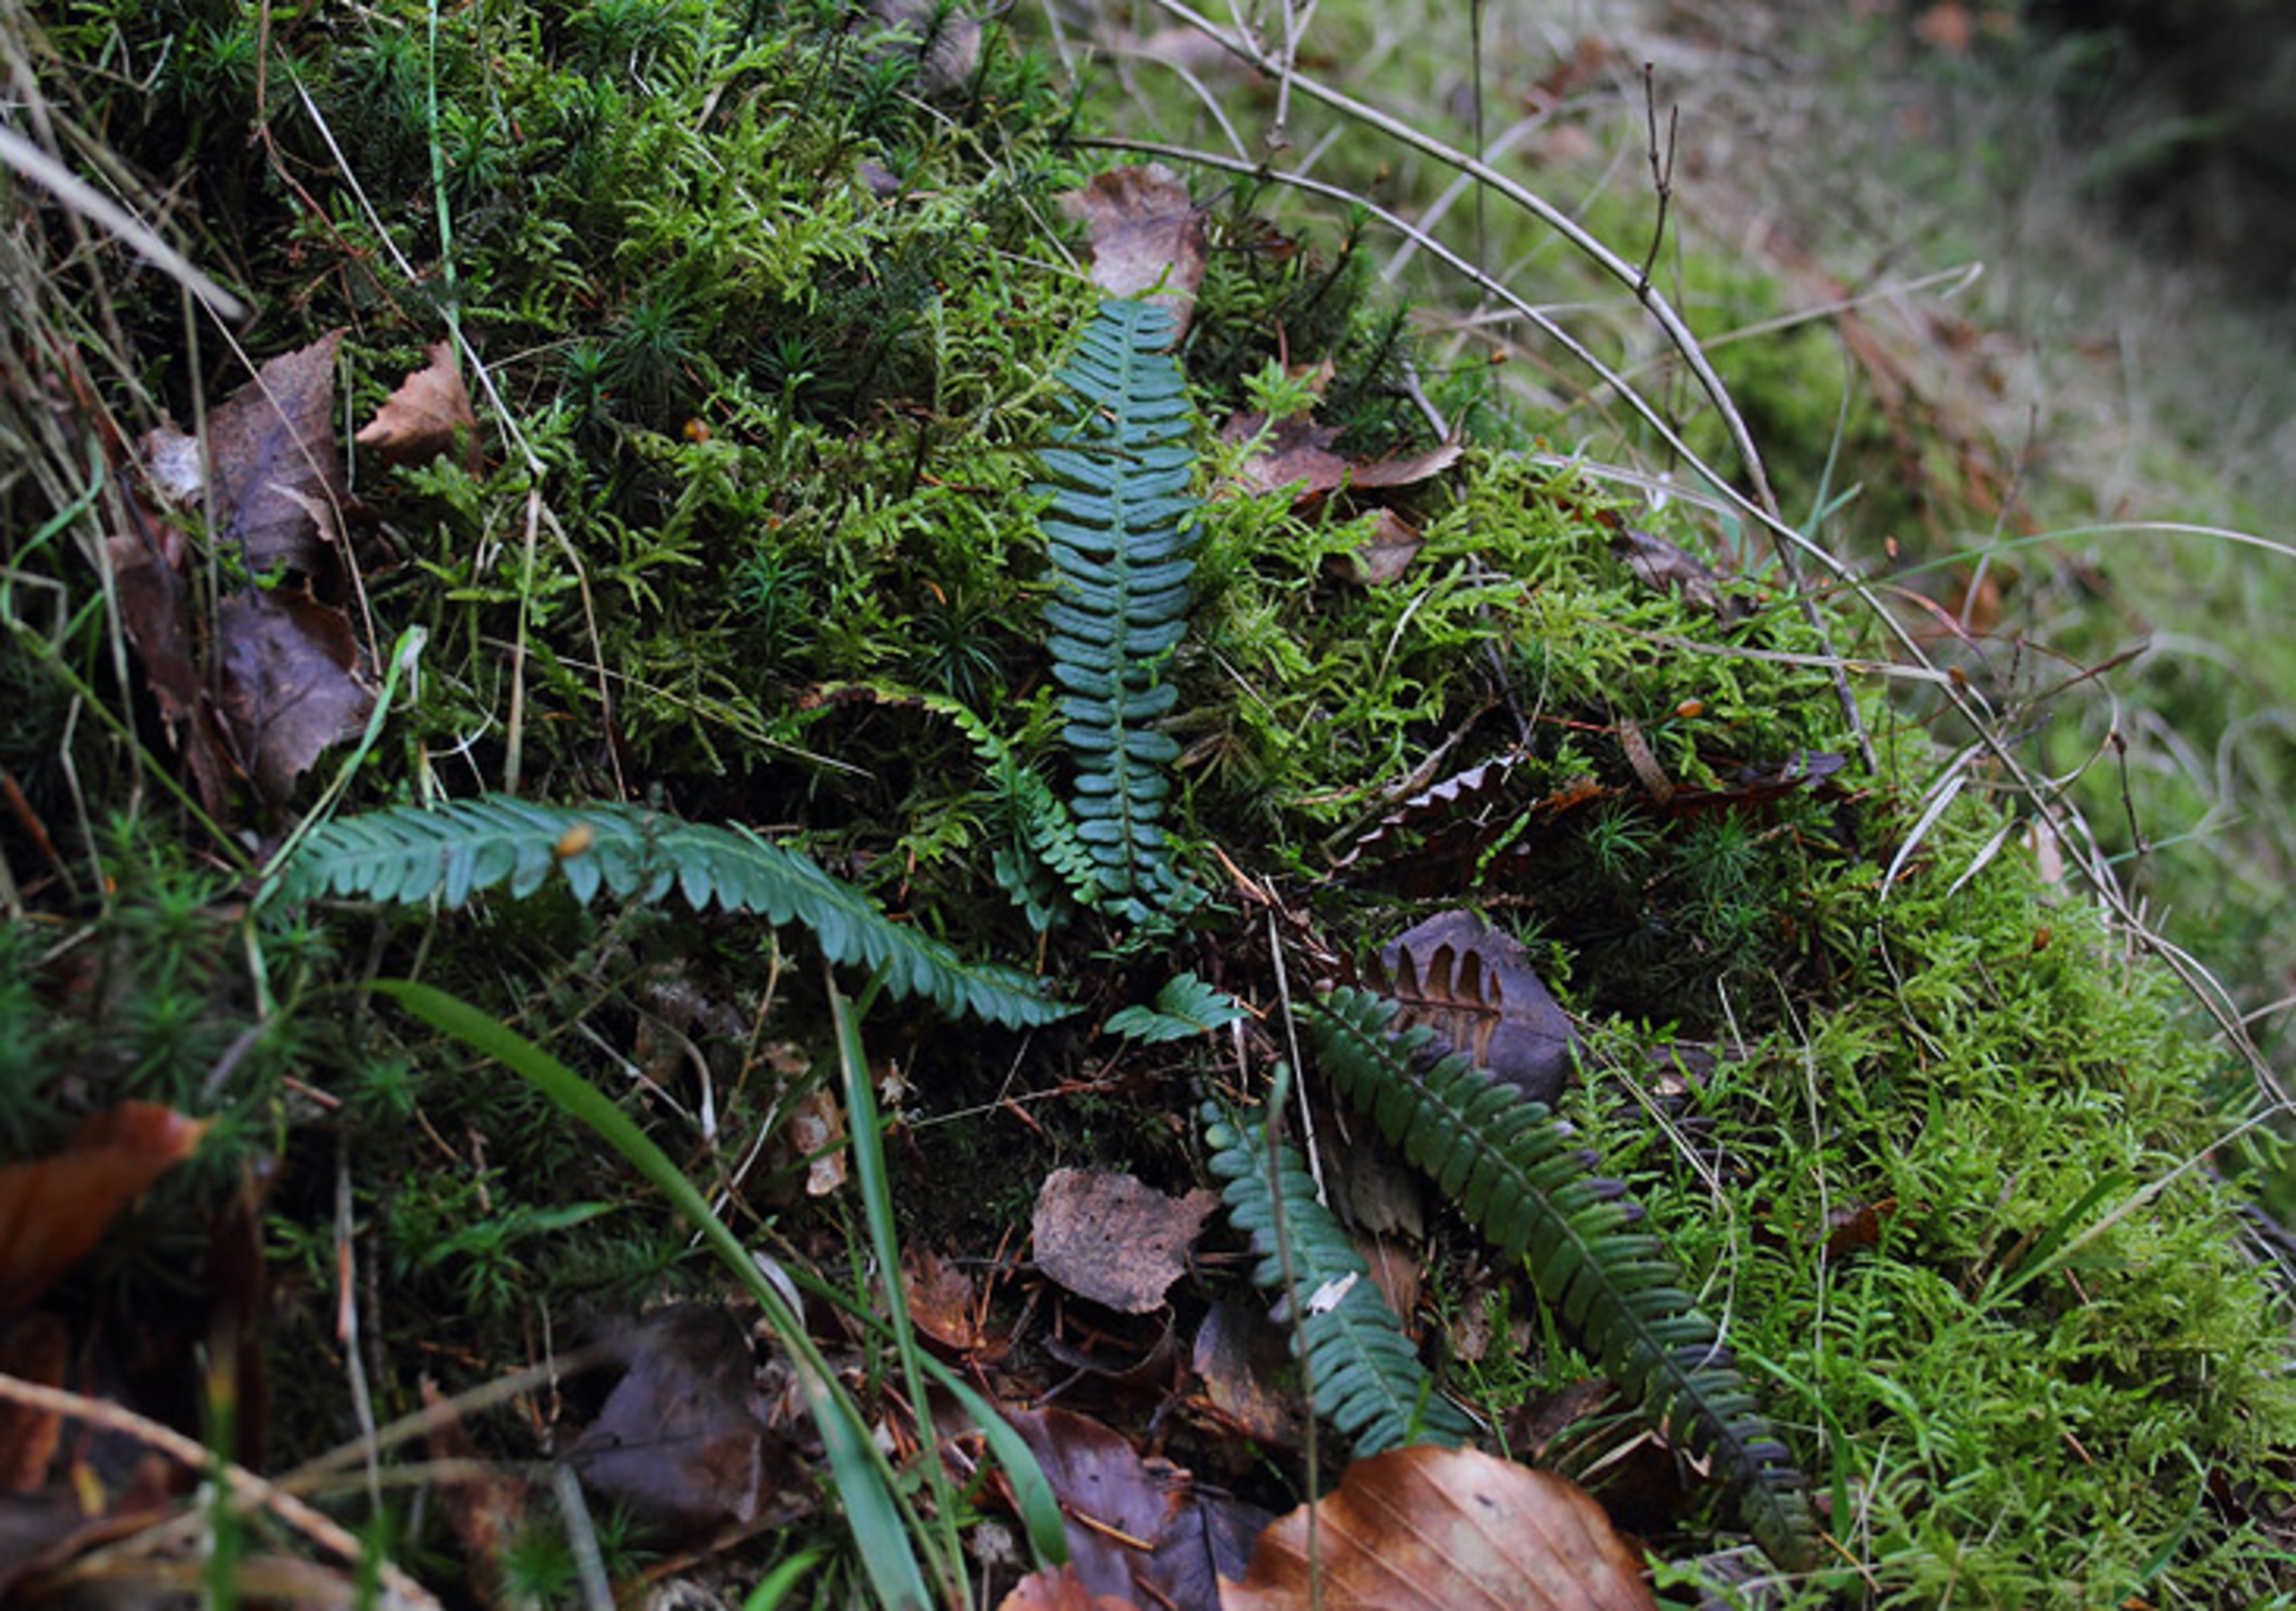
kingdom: Plantae
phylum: Tracheophyta
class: Polypodiopsida
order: Polypodiales
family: Blechnaceae
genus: Struthiopteris
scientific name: Struthiopteris spicant
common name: Kambregne
